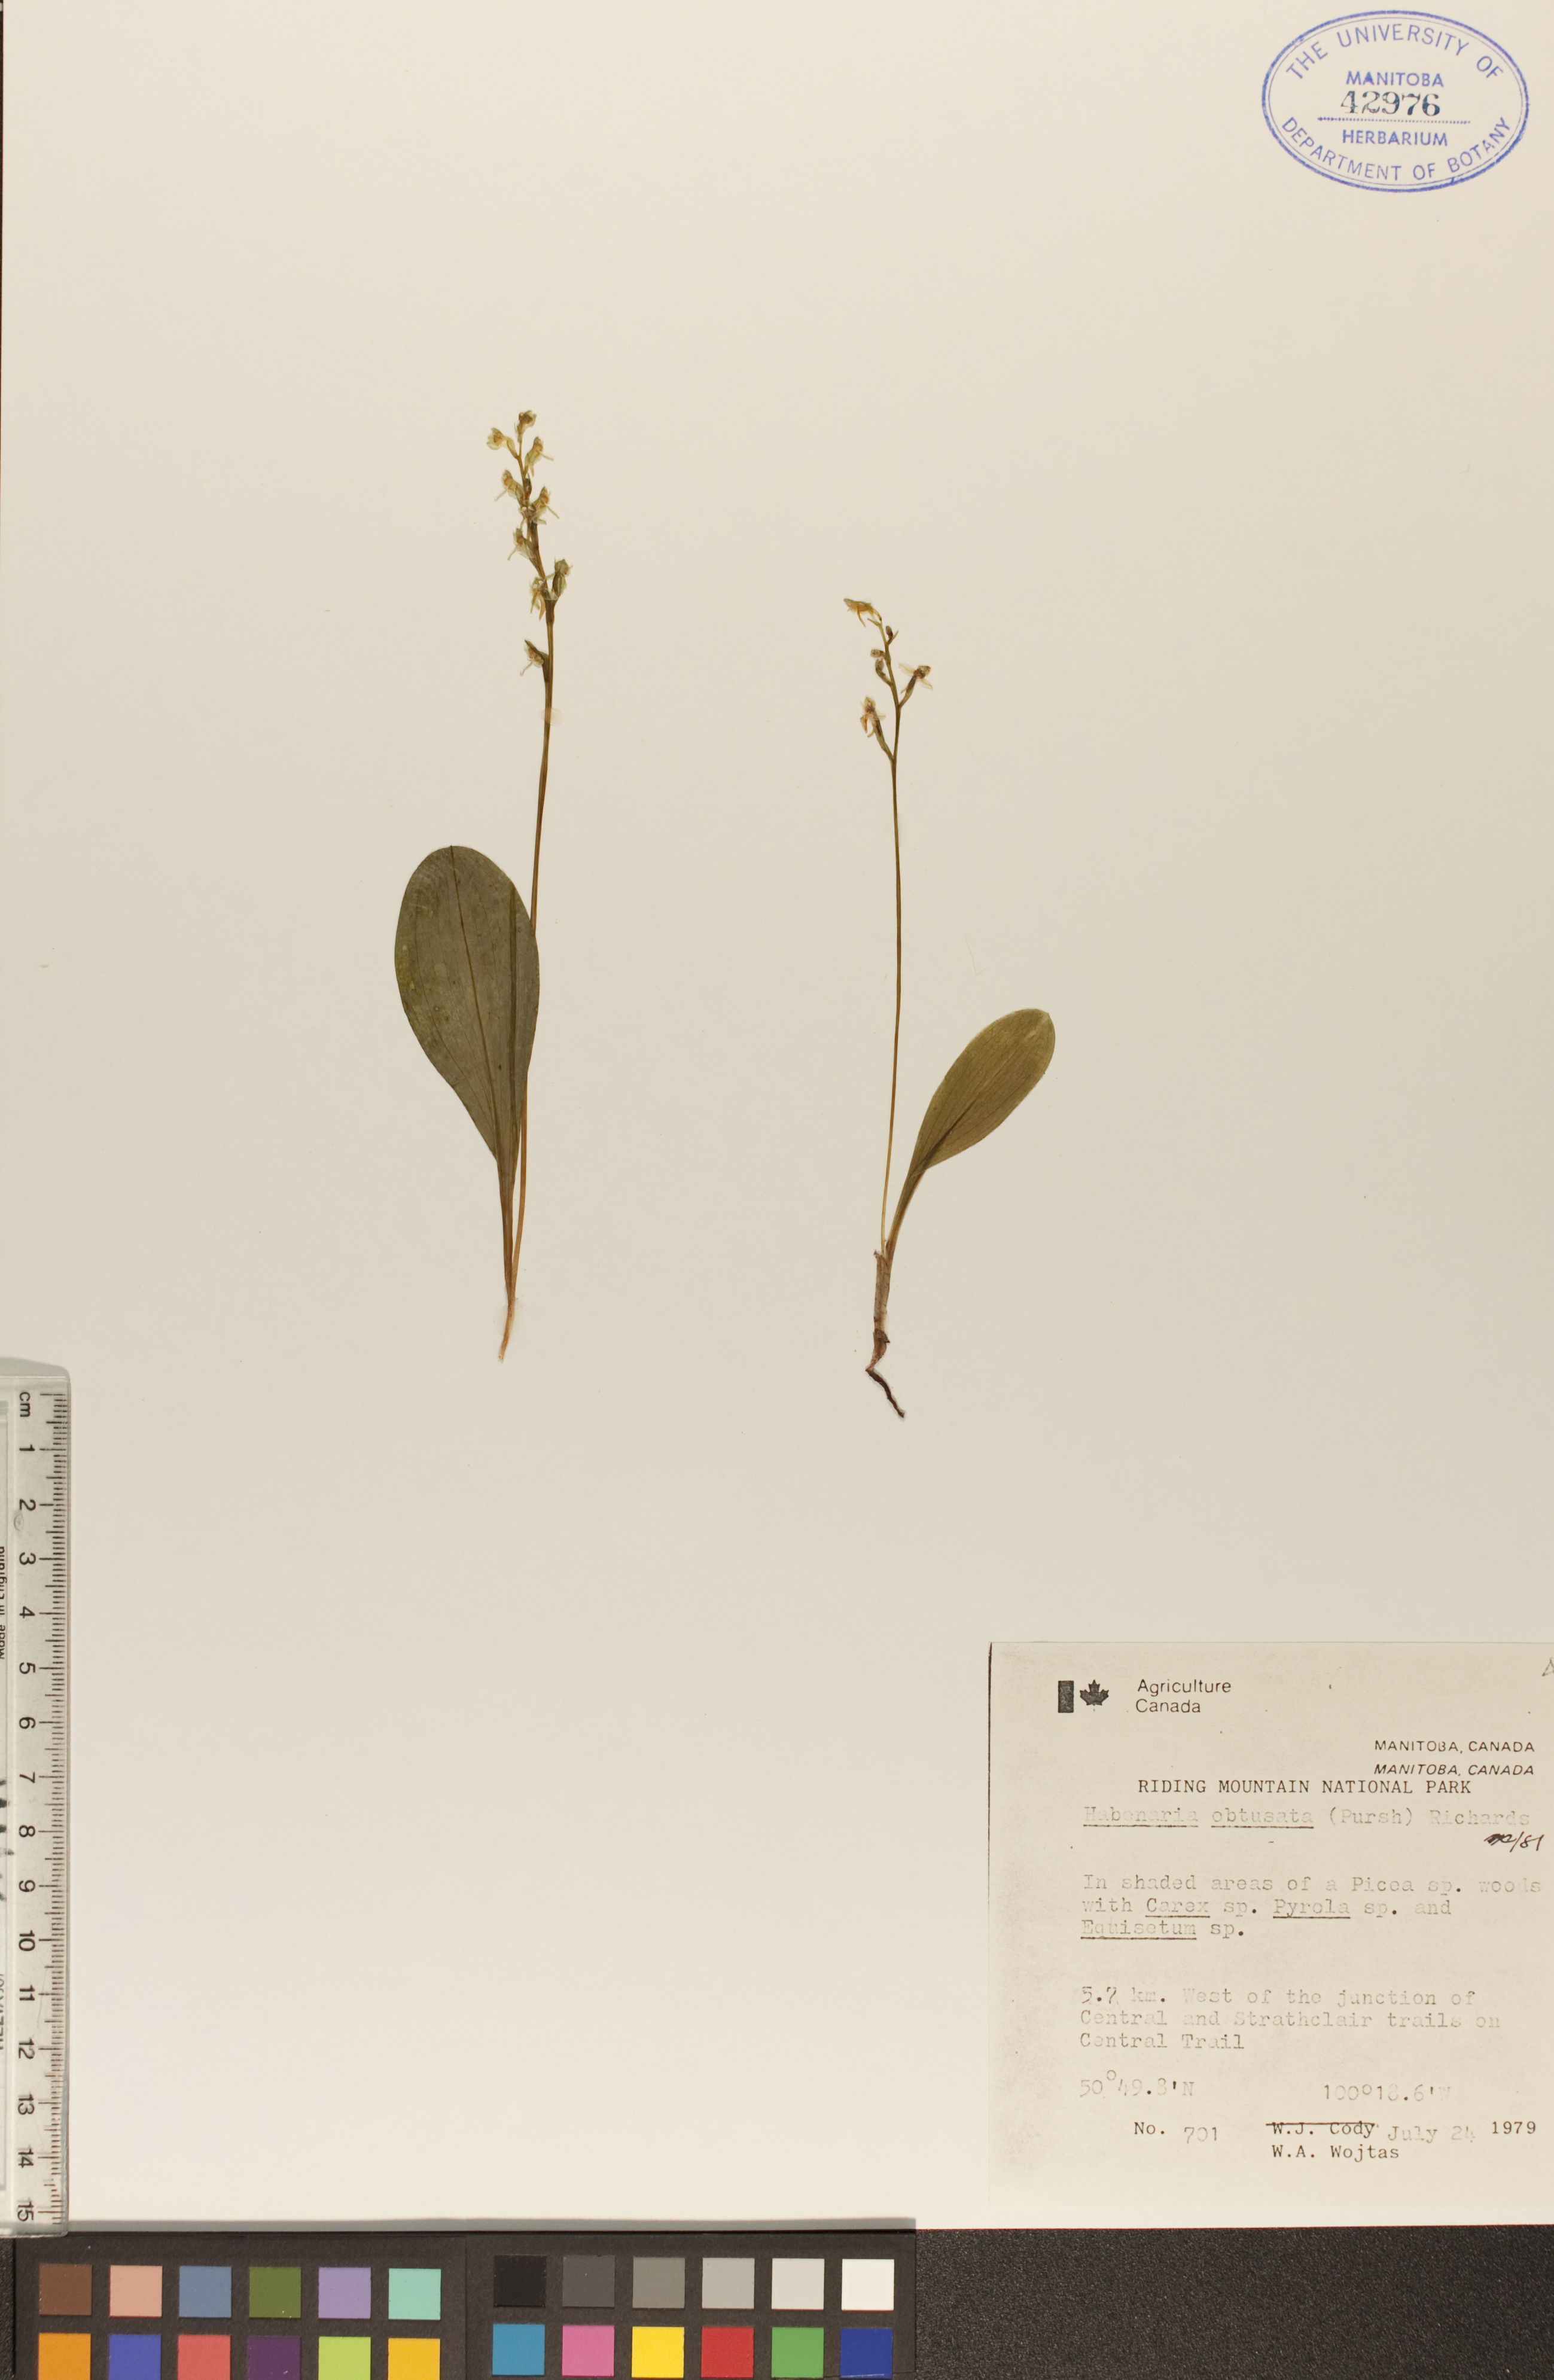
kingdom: Plantae
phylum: Tracheophyta
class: Liliopsida
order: Asparagales
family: Orchidaceae
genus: Platanthera
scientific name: Platanthera obtusata
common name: Blunt bog orchid
